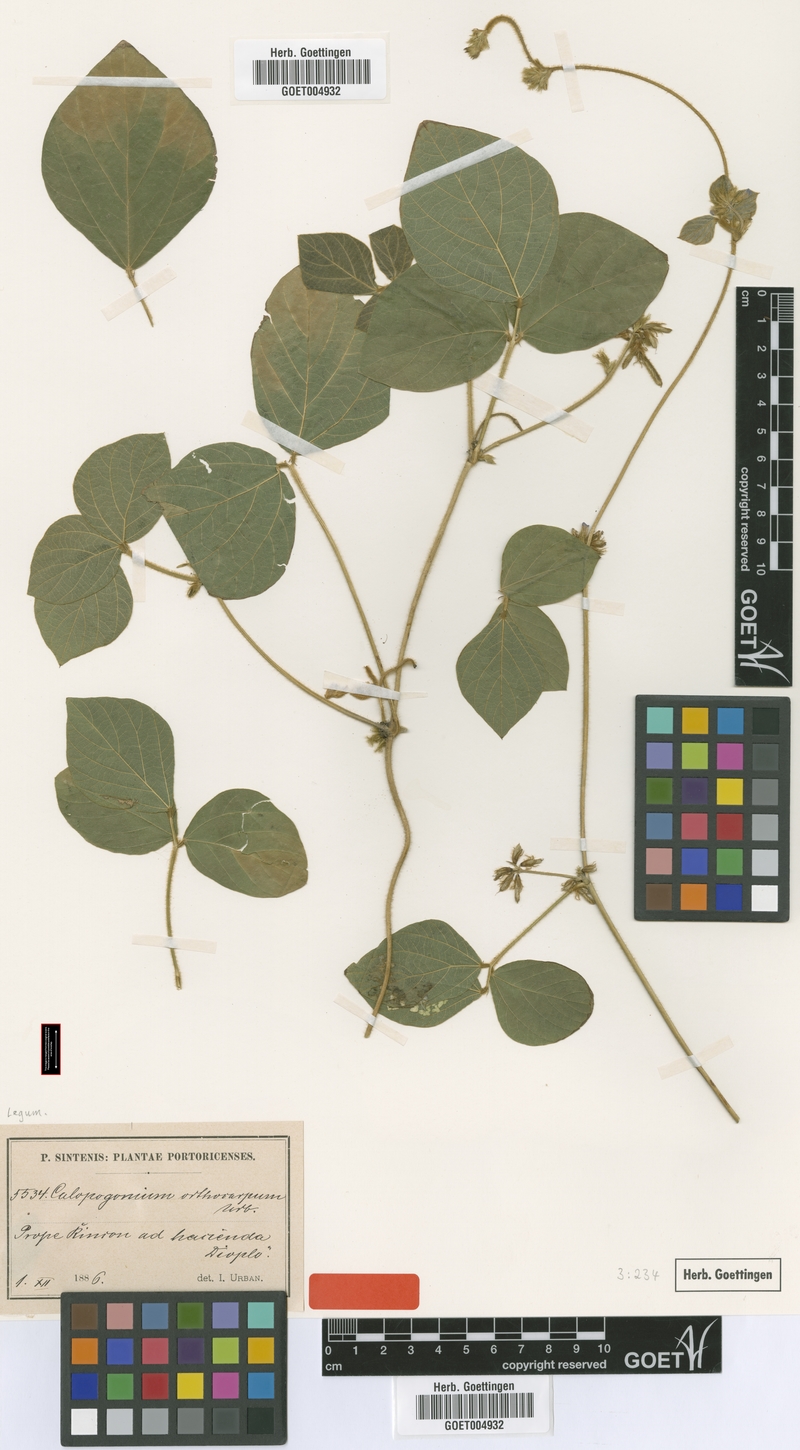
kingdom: Plantae
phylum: Tracheophyta
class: Magnoliopsida
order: Fabales
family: Fabaceae
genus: Calopogonium
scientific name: Calopogonium mucunoides
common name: Calopo
